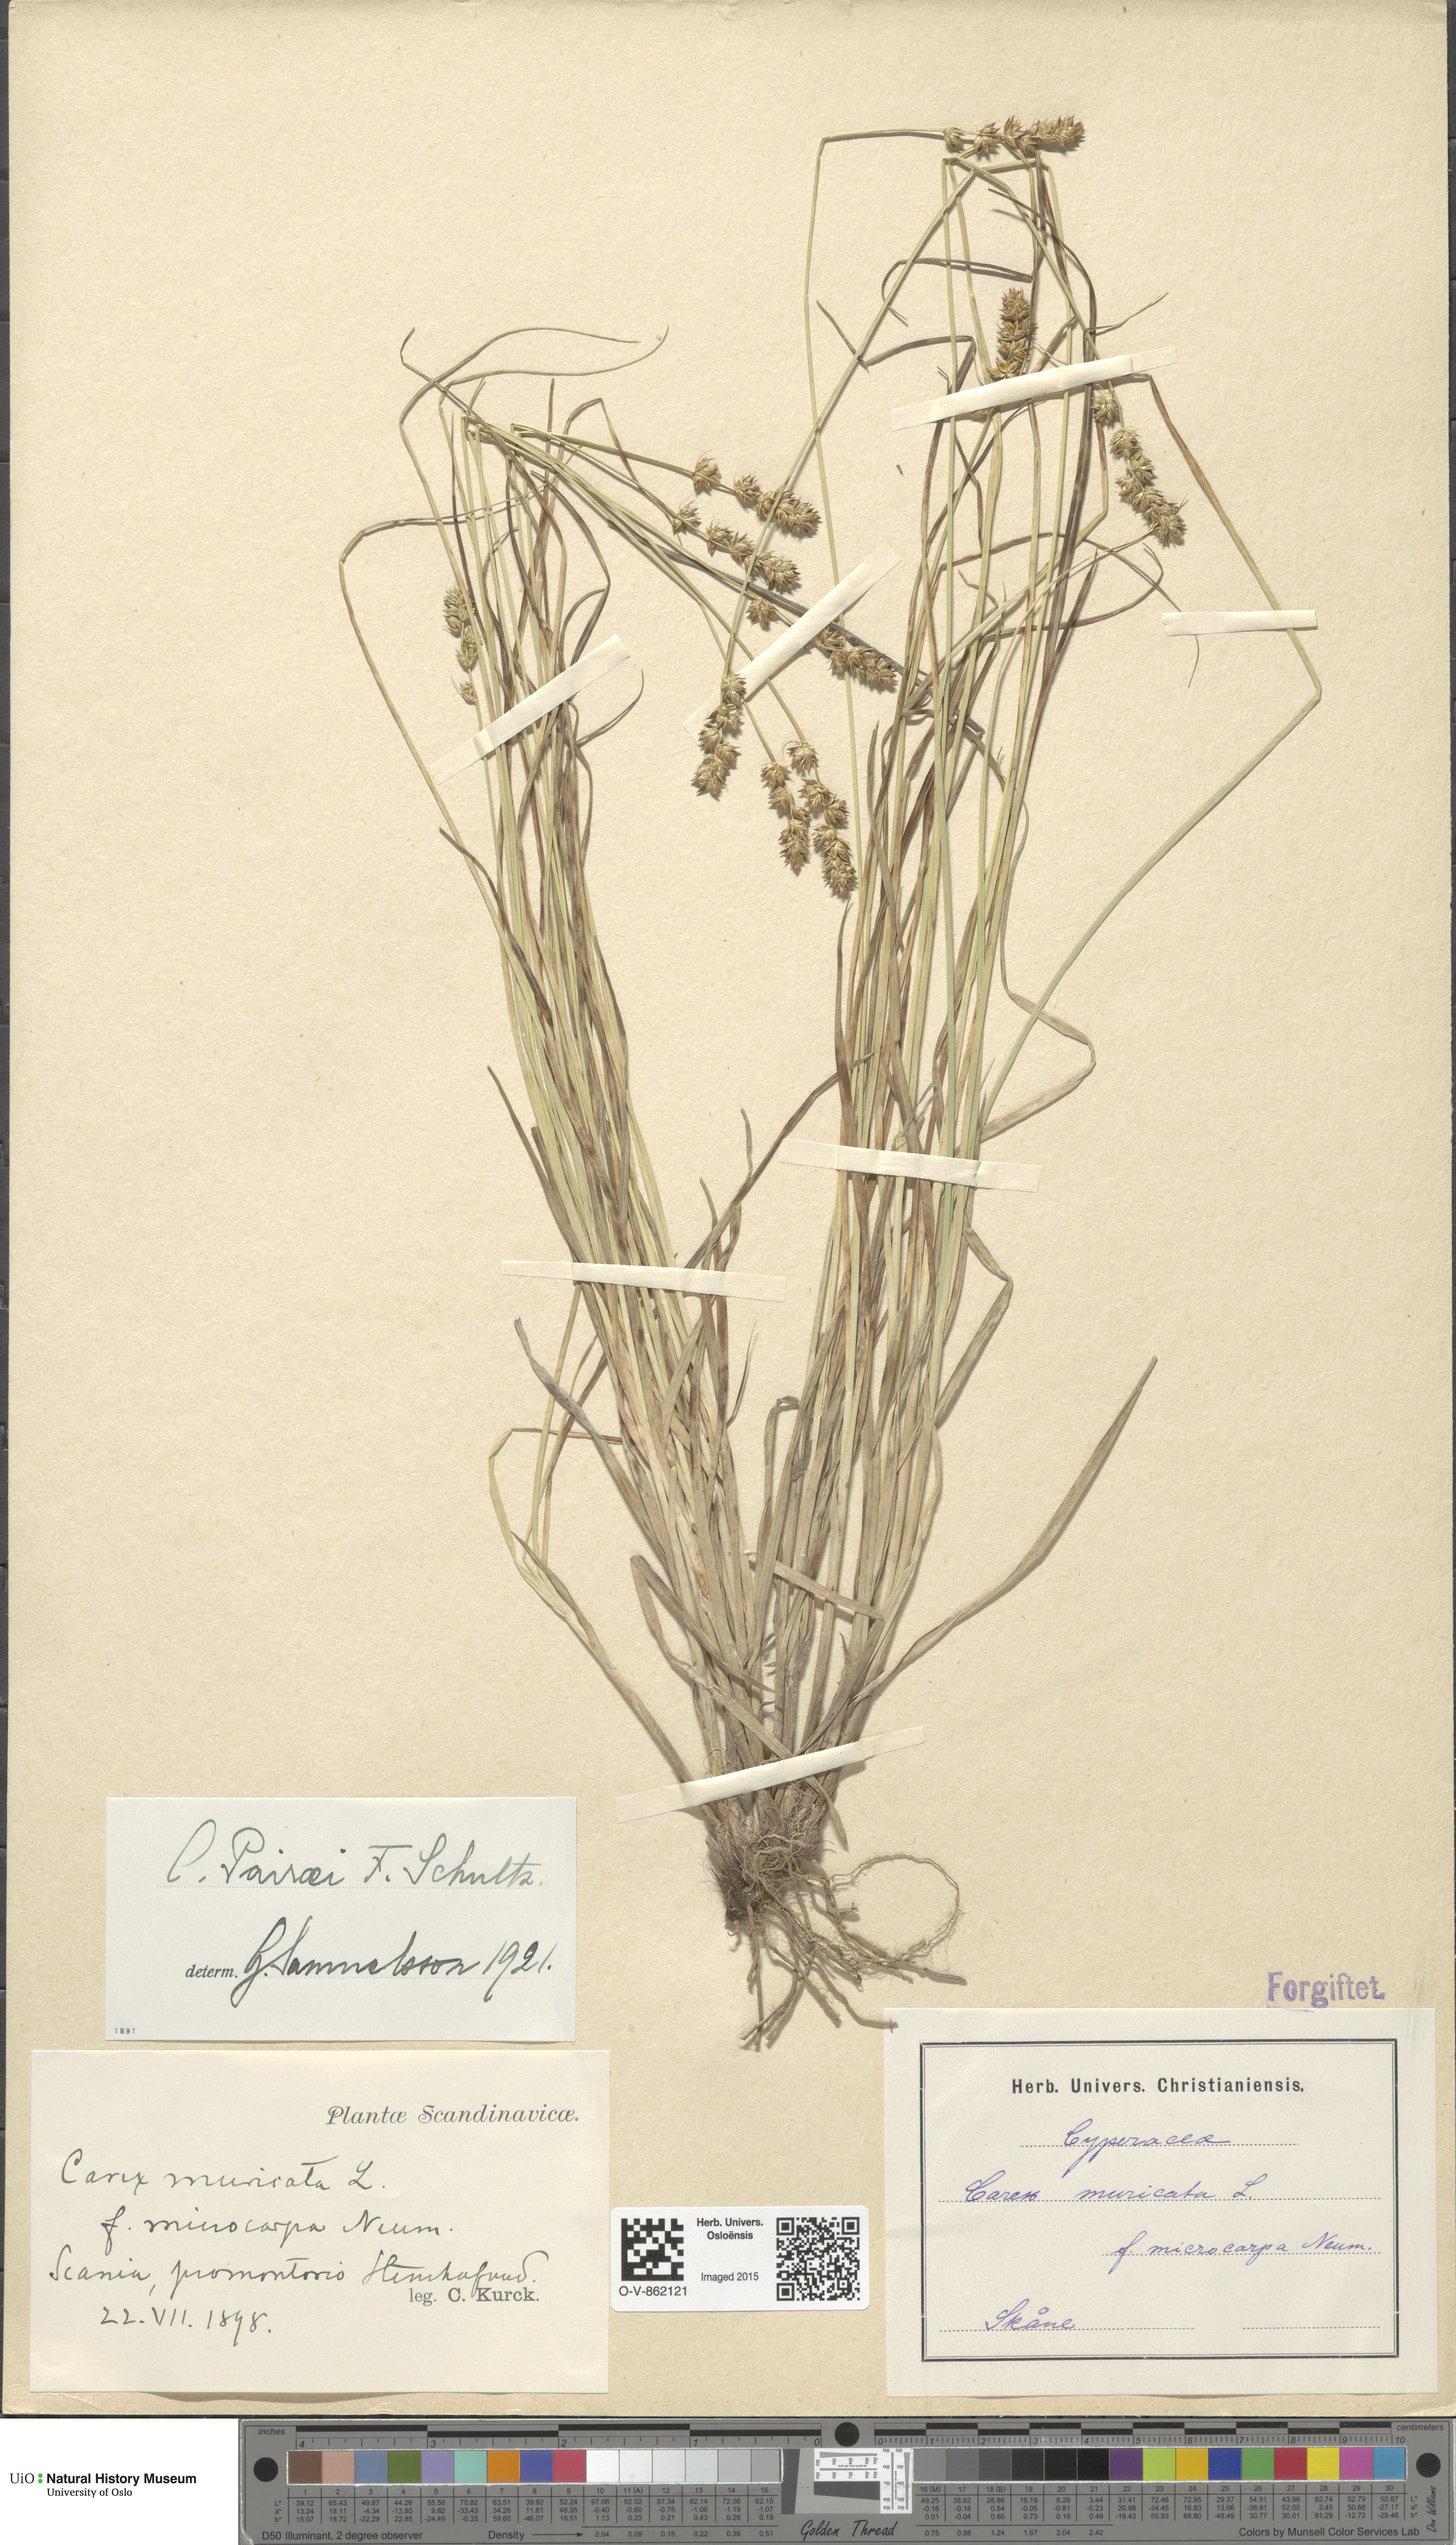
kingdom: Plantae
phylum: Tracheophyta
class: Liliopsida
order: Poales
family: Cyperaceae
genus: Carex
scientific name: Carex pairae
